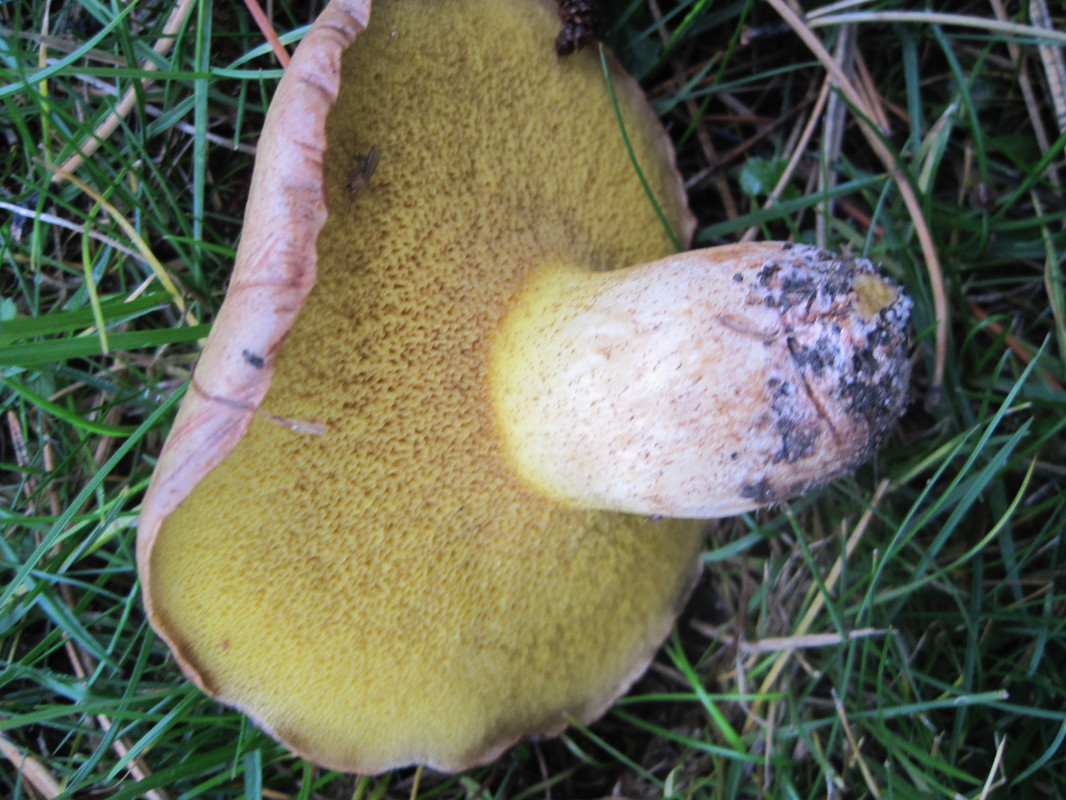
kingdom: Fungi
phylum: Basidiomycota
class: Agaricomycetes
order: Boletales
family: Suillaceae
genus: Suillus
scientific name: Suillus collinitus
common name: rosafodet slimrørhat
